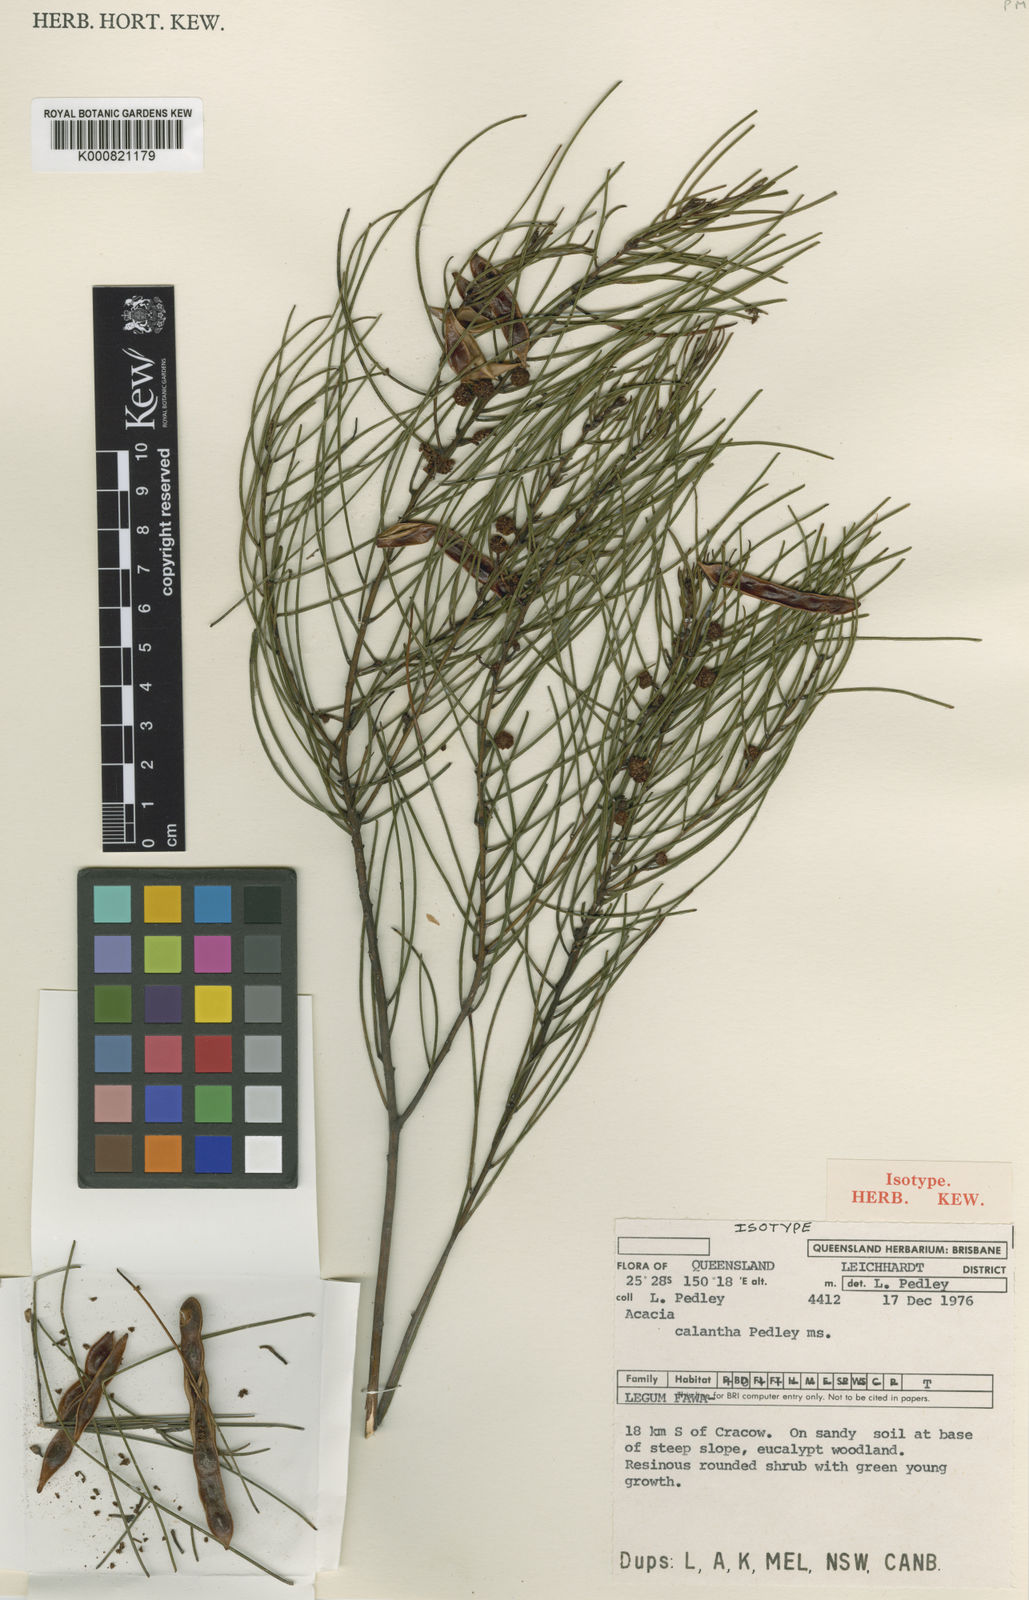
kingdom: Plantae
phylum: Tracheophyta
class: Magnoliopsida
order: Fabales
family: Fabaceae
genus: Acacia
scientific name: Acacia calantha
